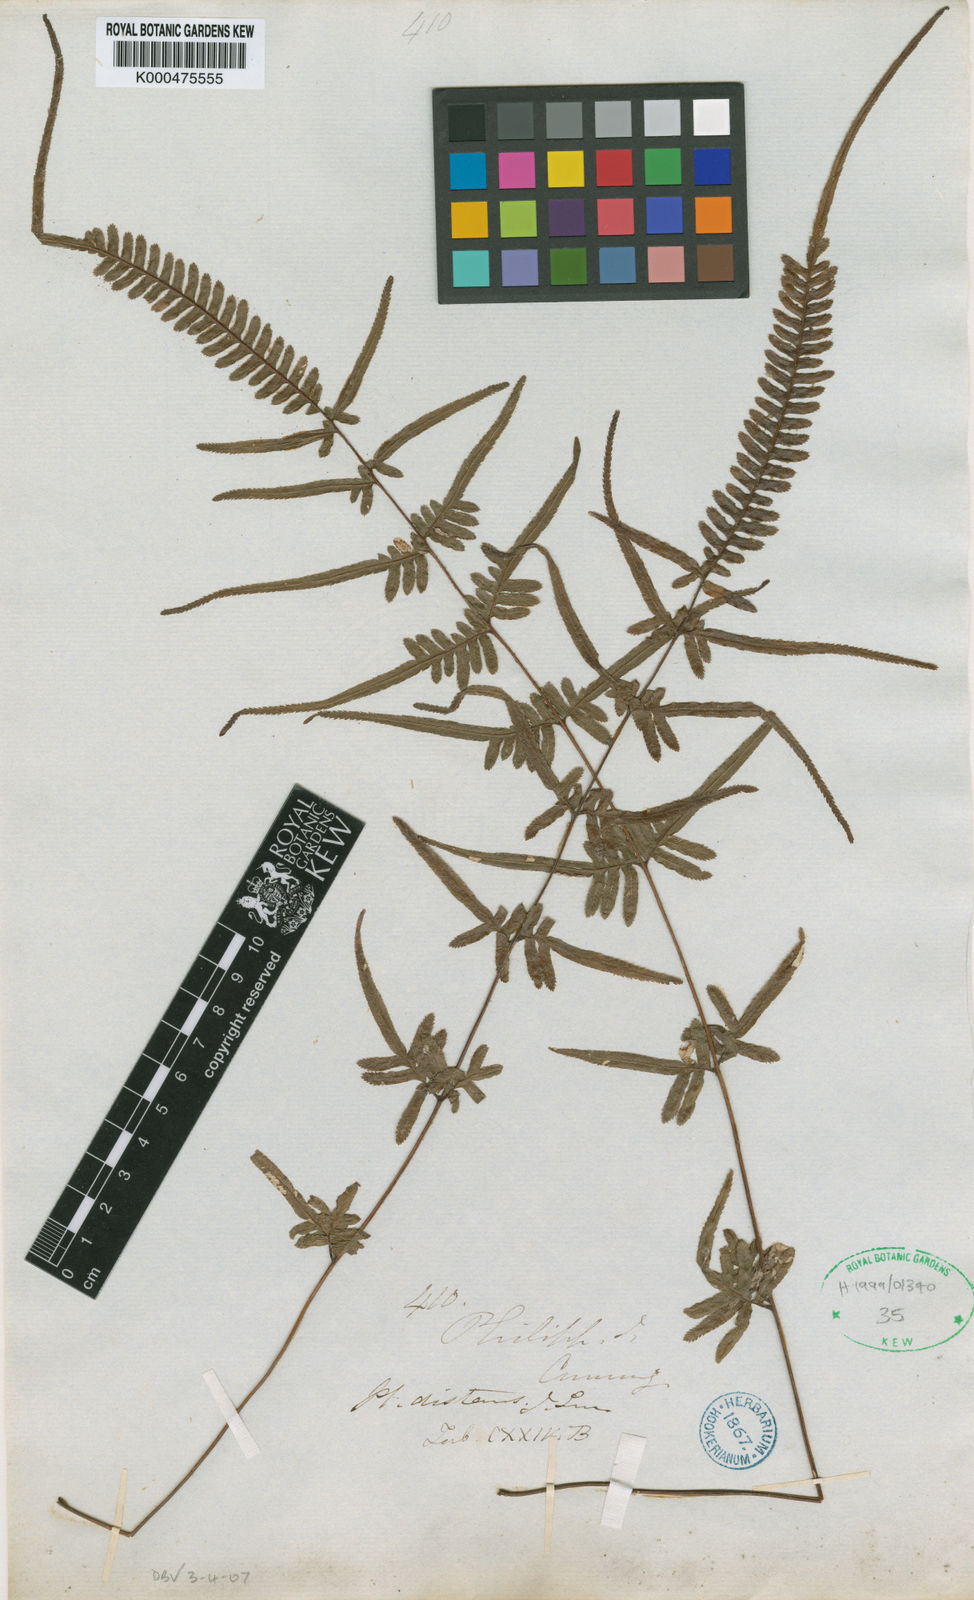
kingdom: Plantae
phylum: Tracheophyta
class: Polypodiopsida
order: Polypodiales
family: Pteridaceae
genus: Pteris
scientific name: Pteris ensiformis
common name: Sword brake
